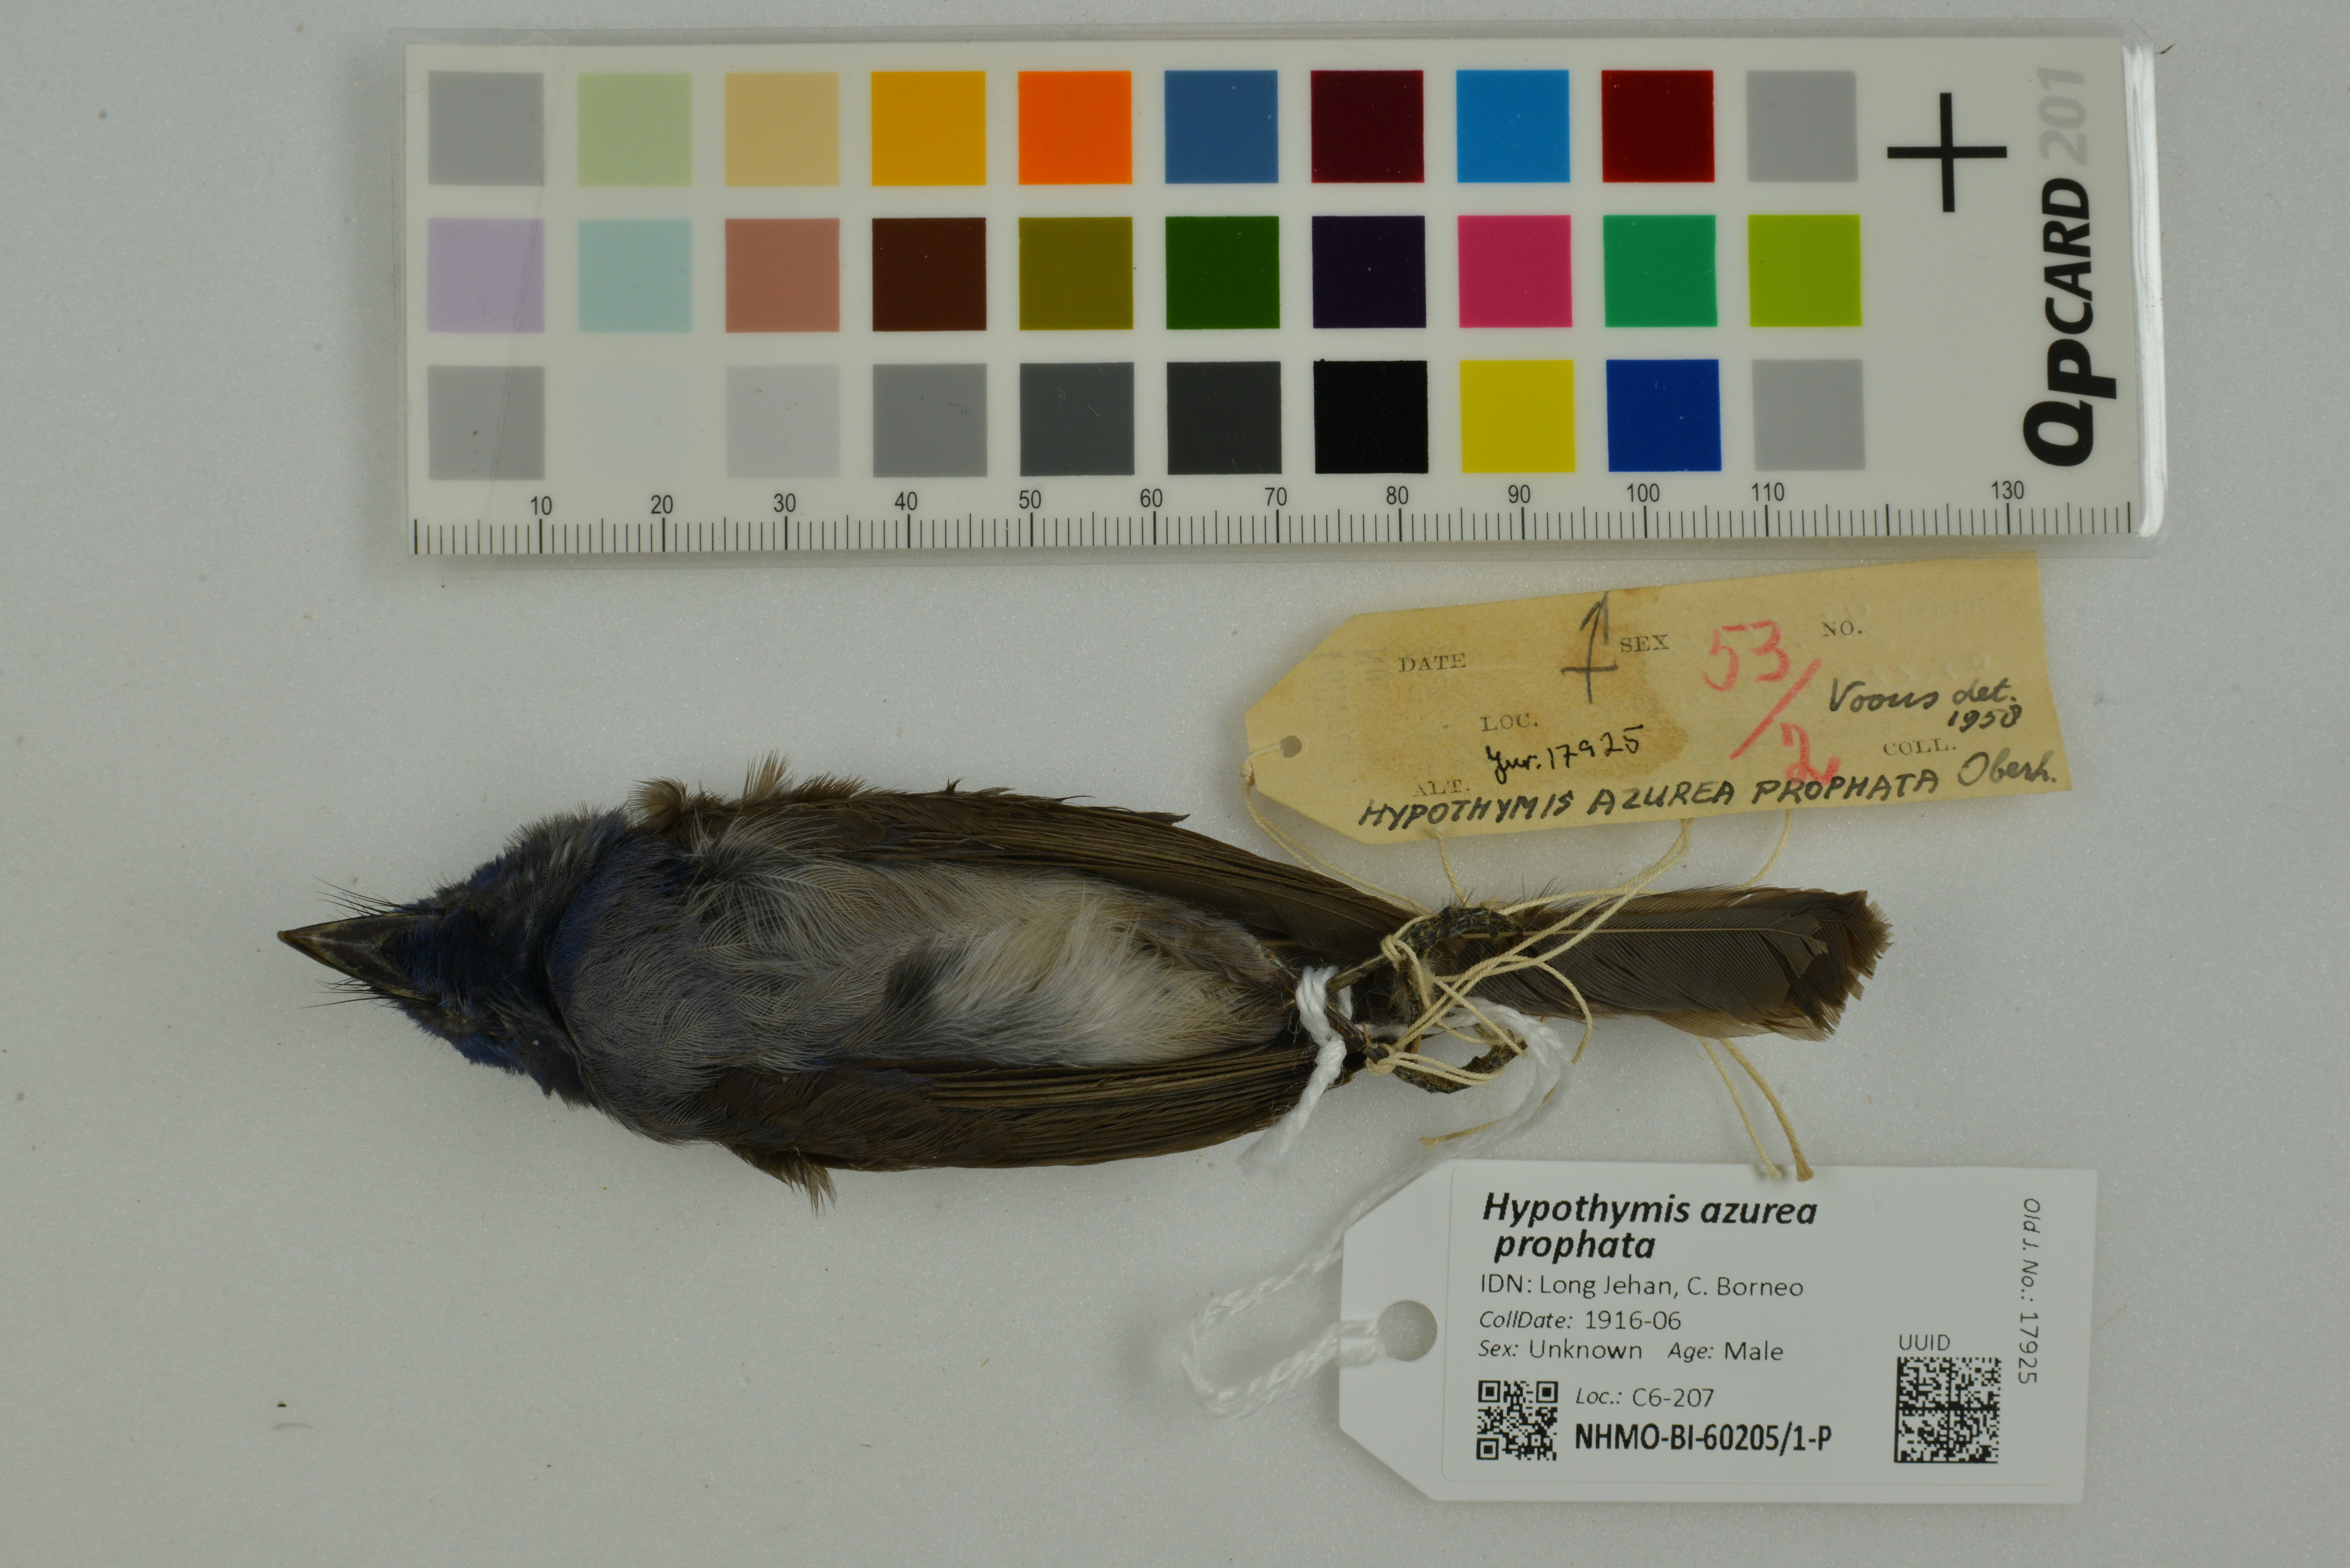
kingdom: Animalia
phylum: Chordata
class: Aves
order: Passeriformes
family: Monarchidae
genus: Hypothymis
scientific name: Hypothymis azurea
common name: Black-naped monarch
